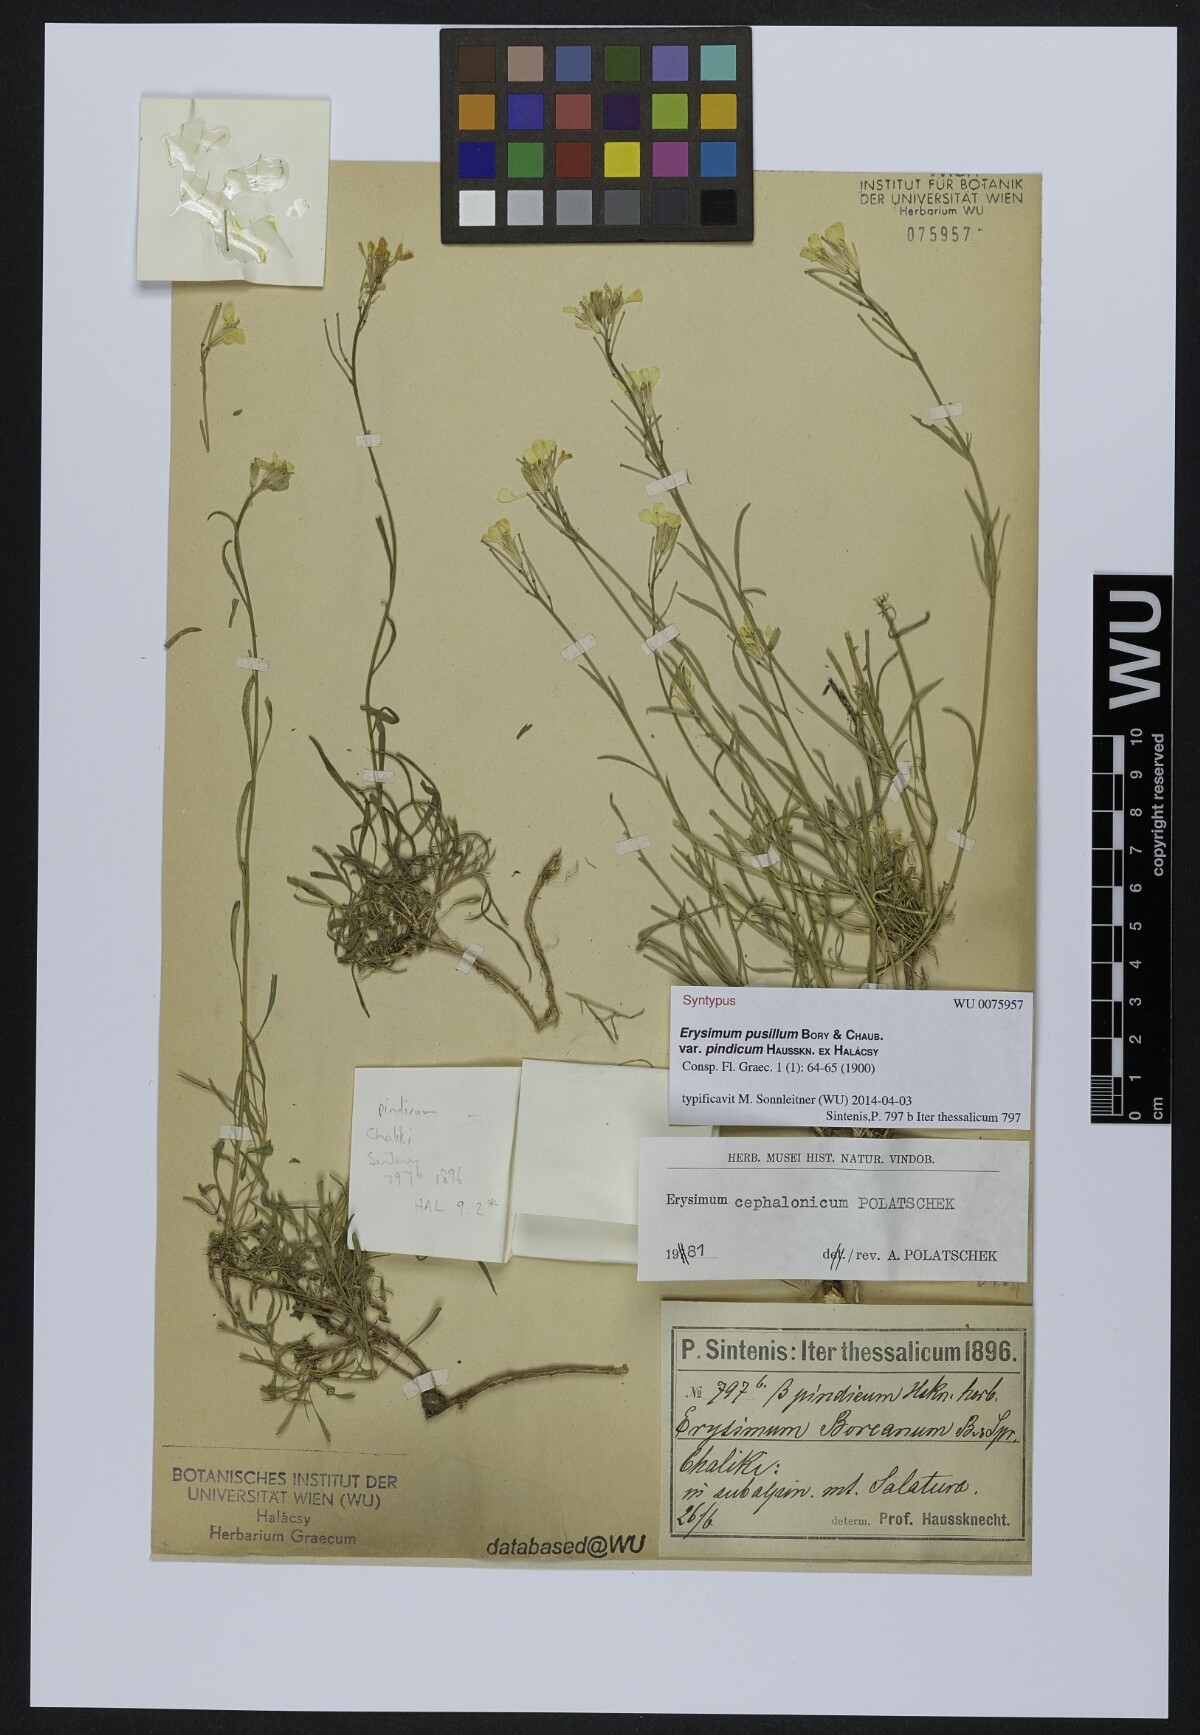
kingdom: Plantae
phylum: Tracheophyta
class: Magnoliopsida
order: Brassicales
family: Brassicaceae
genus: Erysimum
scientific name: Erysimum pusillum
